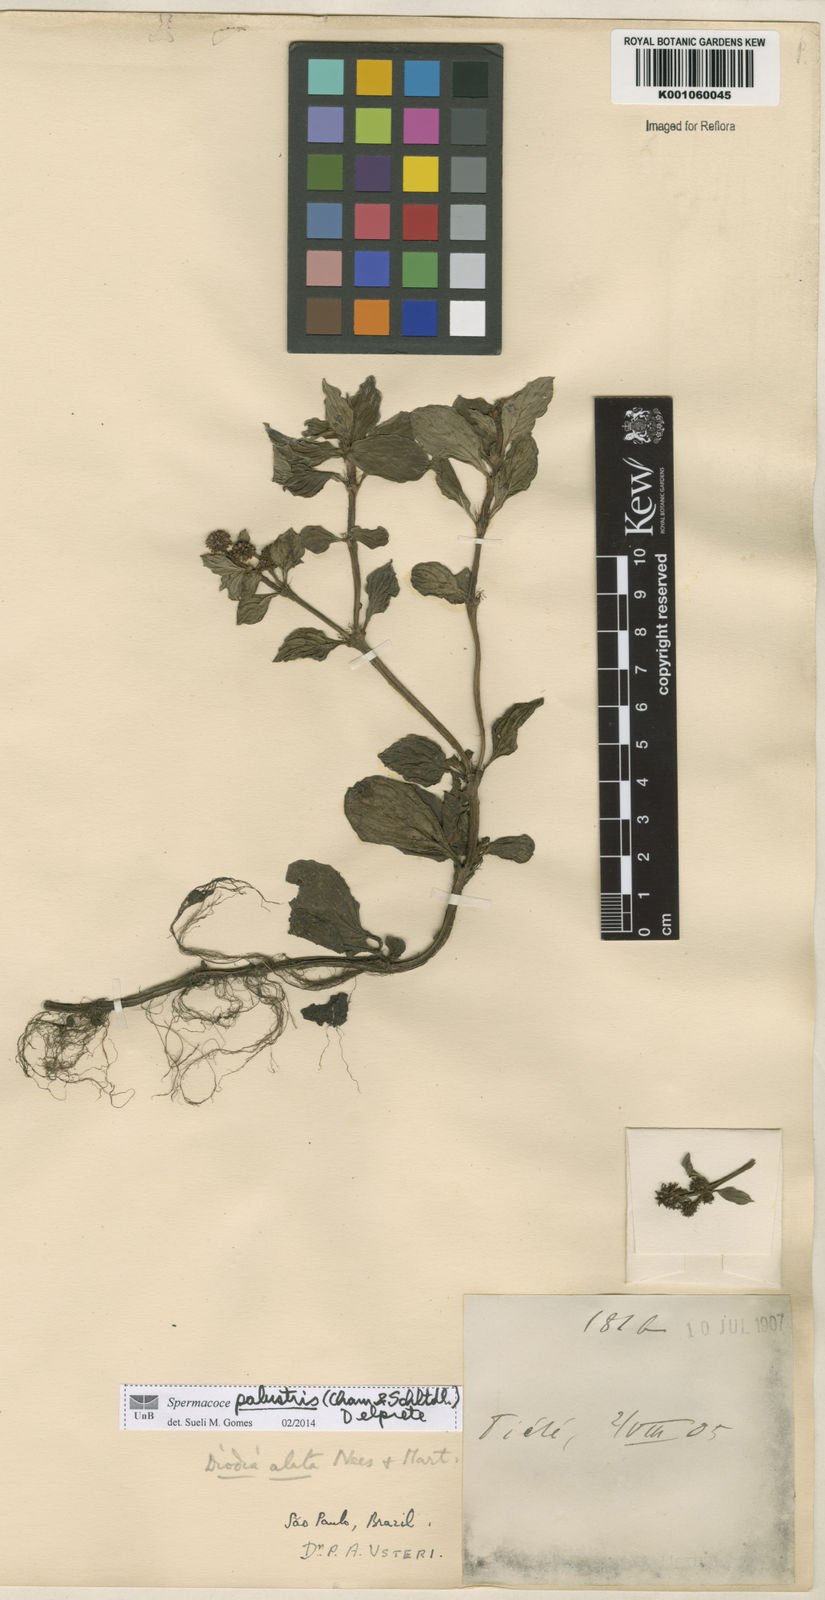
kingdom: Plantae
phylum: Tracheophyta
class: Magnoliopsida
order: Gentianales
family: Rubiaceae
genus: Galianthe
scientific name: Galianthe palustris
